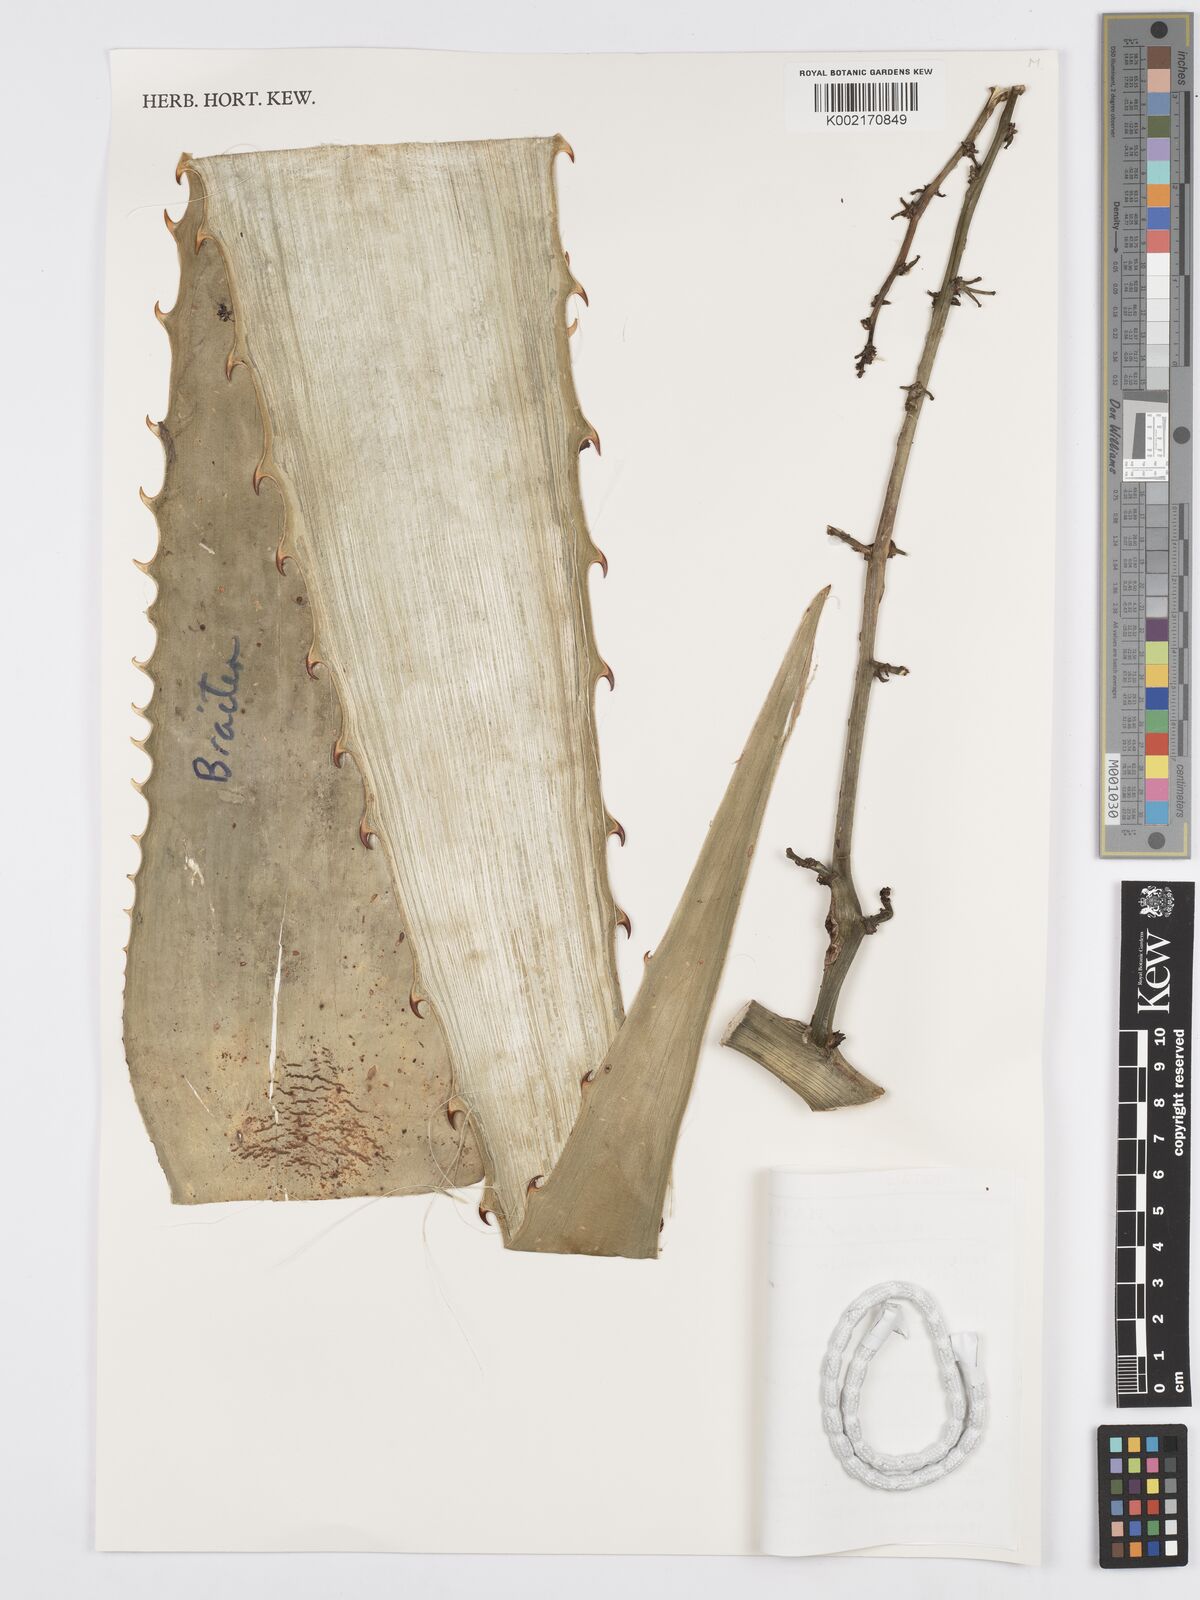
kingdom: Plantae
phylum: Tracheophyta
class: Liliopsida
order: Asparagales
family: Asparagaceae
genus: Furcraea
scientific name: Furcraea guatemalensis
